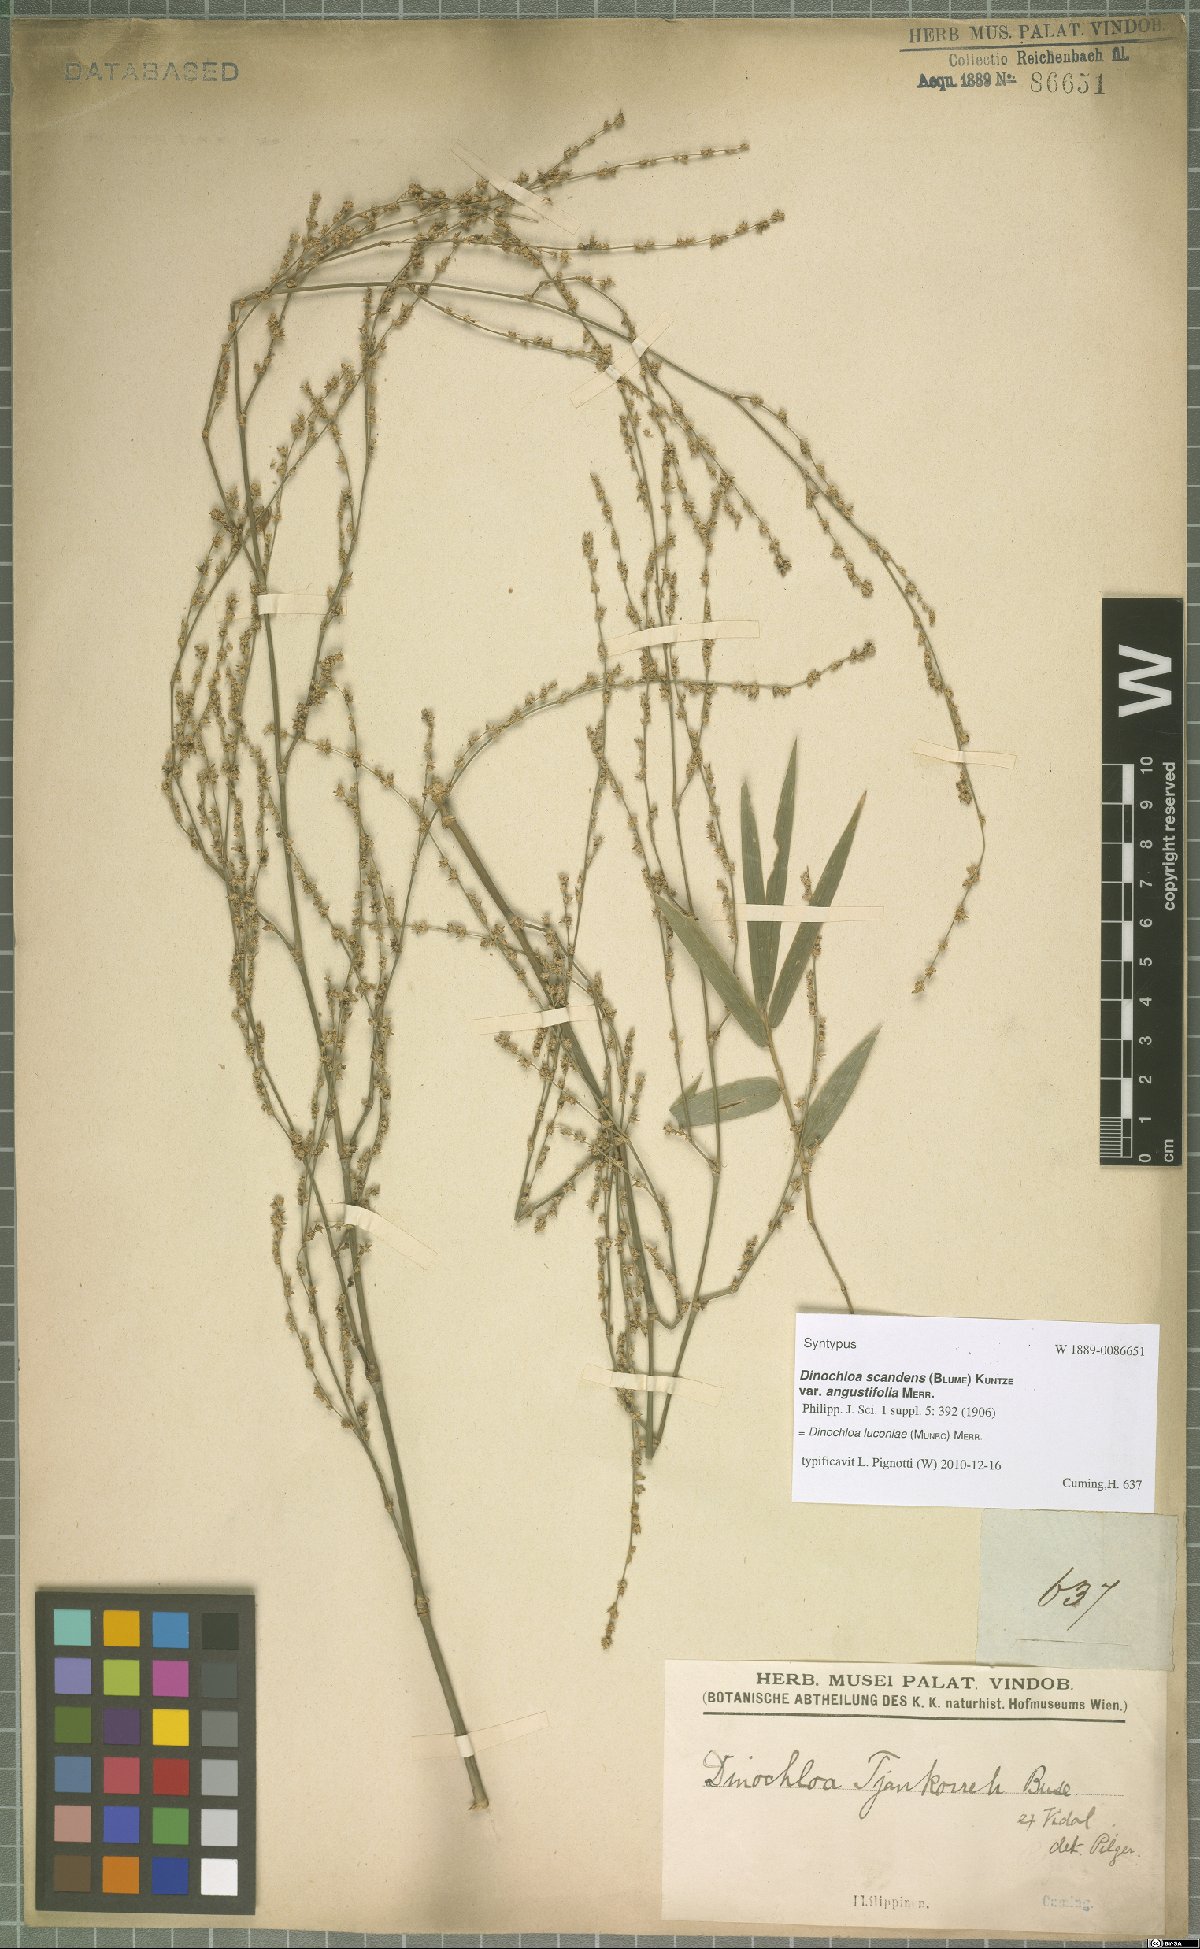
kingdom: Plantae
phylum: Tracheophyta
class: Liliopsida
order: Poales
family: Poaceae
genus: Dinochloa
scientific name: Dinochloa luconiae
